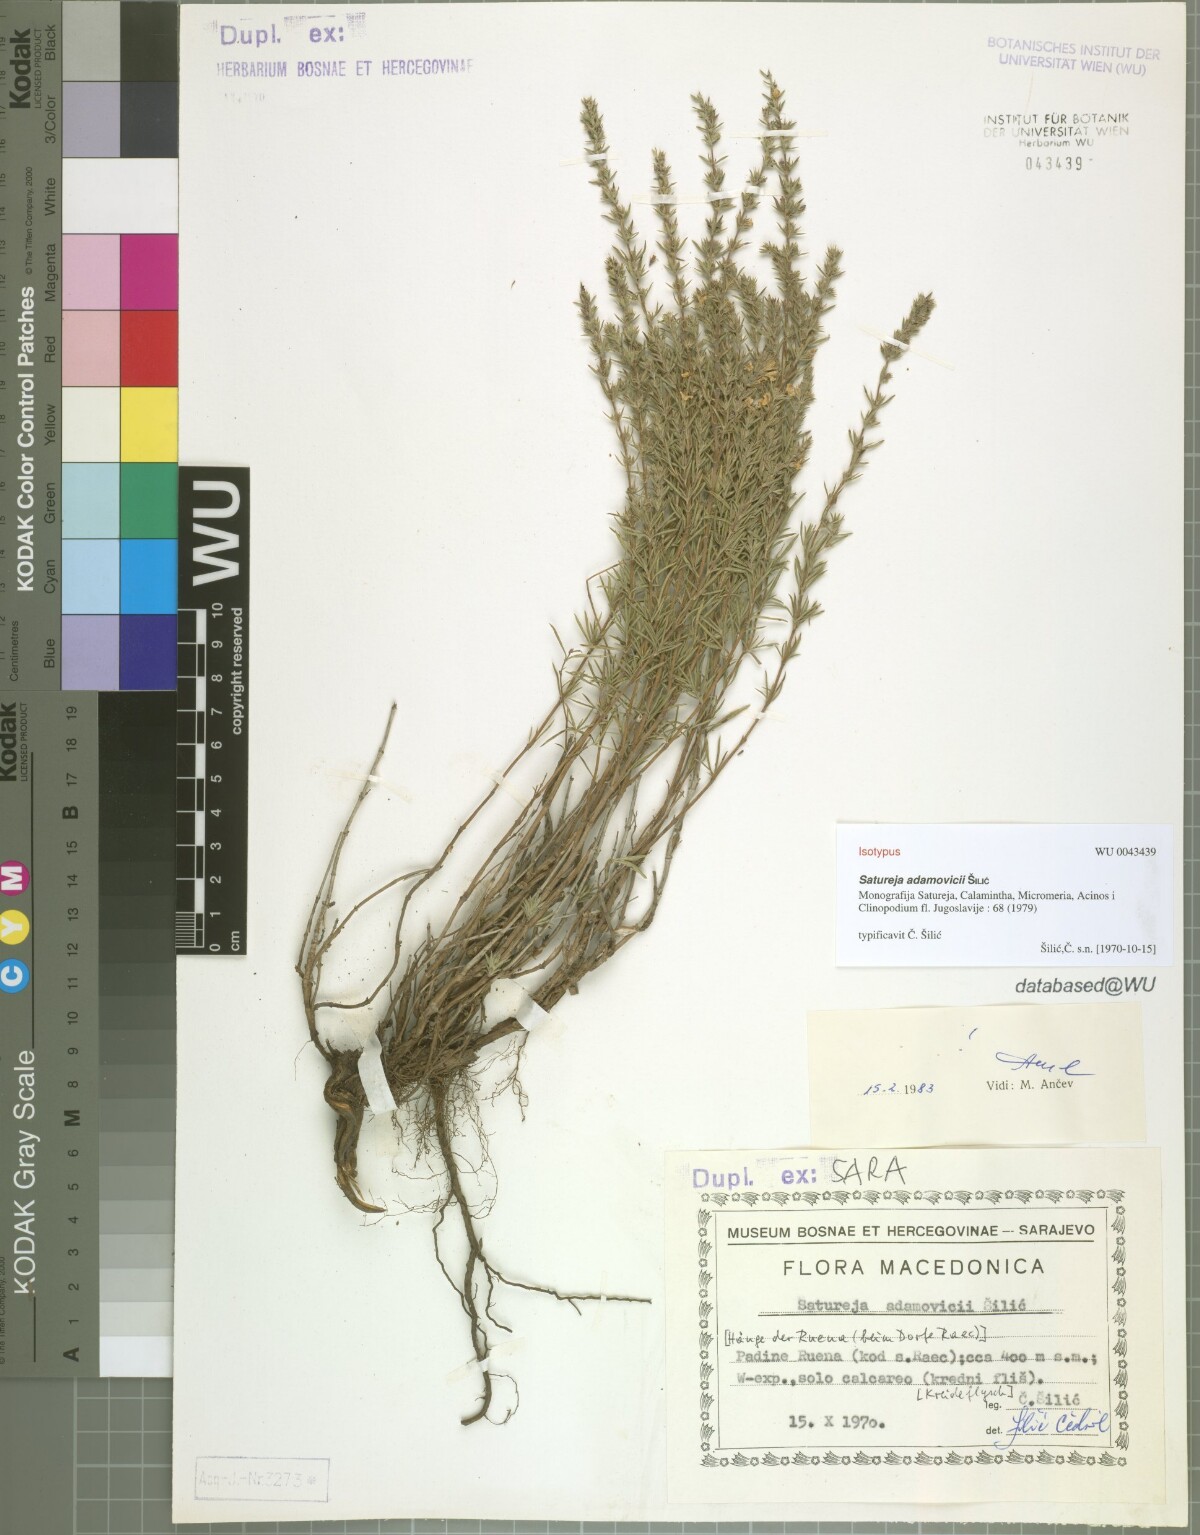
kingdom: Plantae
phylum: Tracheophyta
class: Magnoliopsida
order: Lamiales
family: Lamiaceae
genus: Satureja
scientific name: Satureja adamovicii
